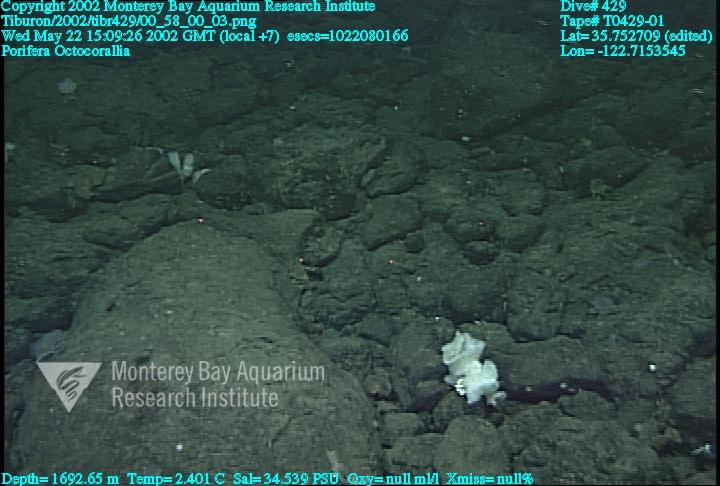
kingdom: Animalia
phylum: Porifera
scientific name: Porifera
